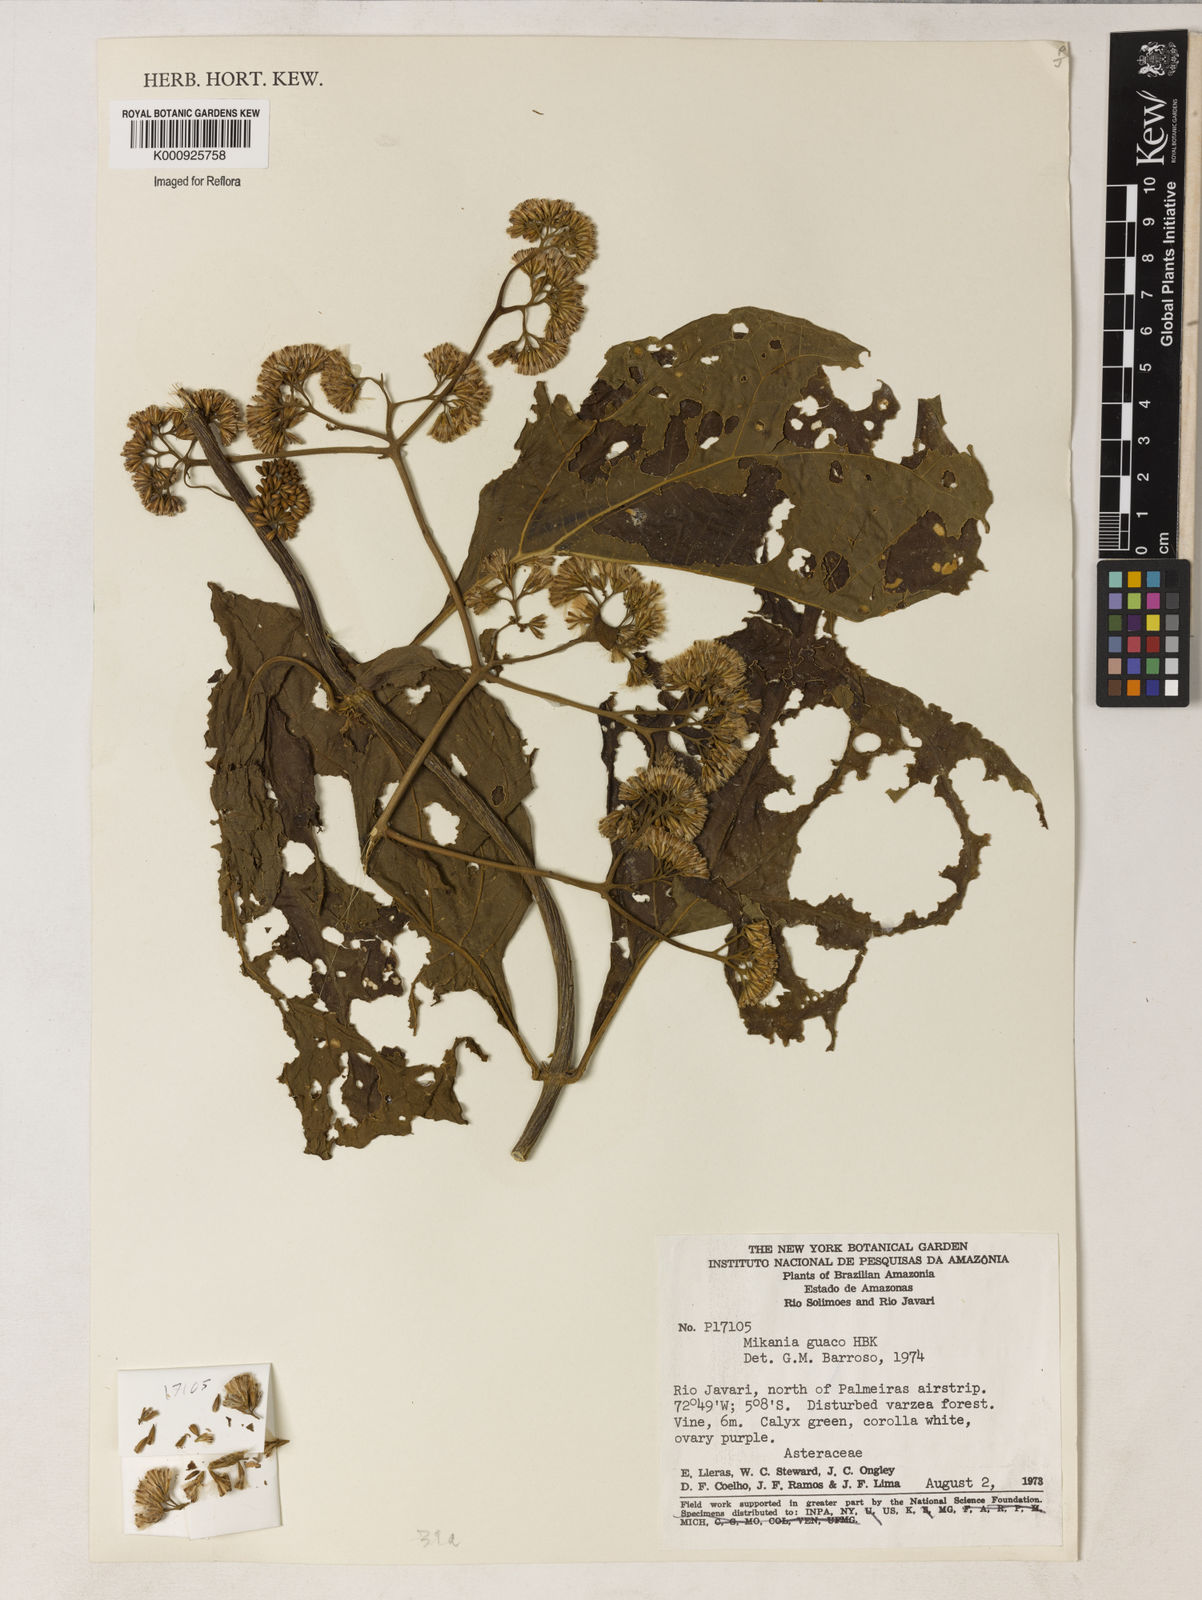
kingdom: Plantae
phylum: Tracheophyta
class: Magnoliopsida
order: Asterales
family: Asteraceae
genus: Mikania
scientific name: Mikania guaco
